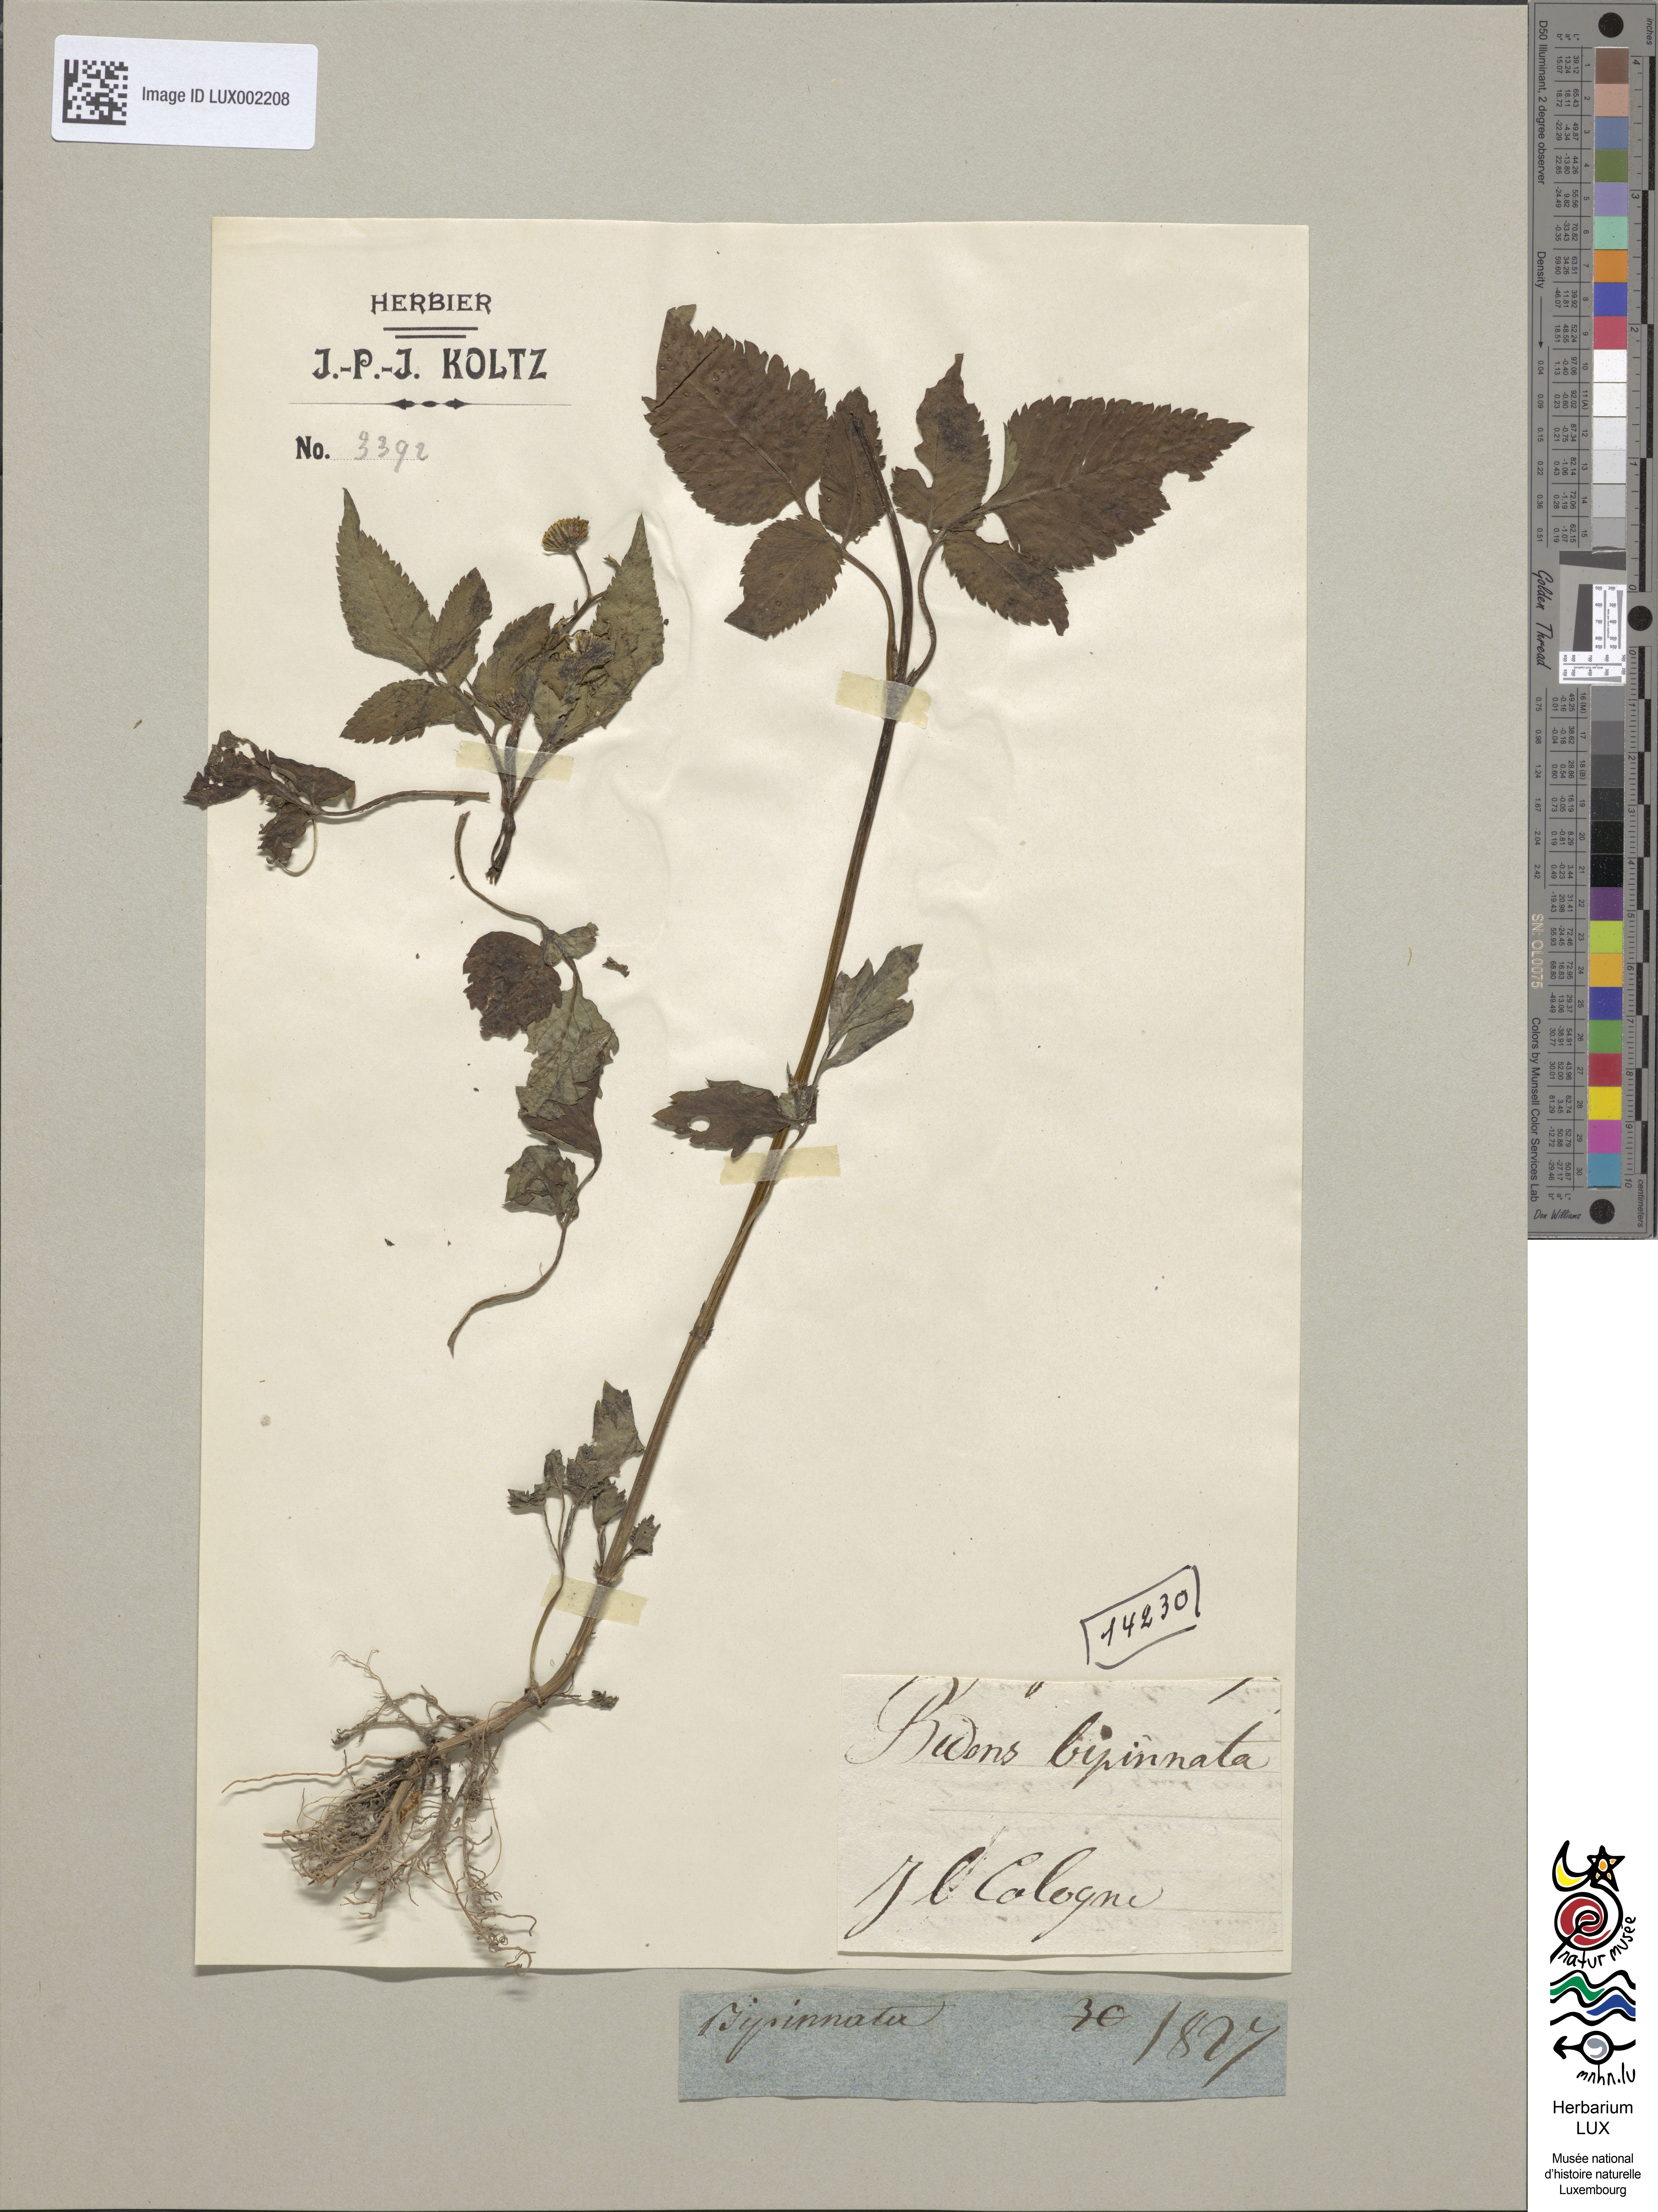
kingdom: Plantae
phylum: Tracheophyta
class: Magnoliopsida
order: Asterales
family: Asteraceae
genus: Bidens
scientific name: Bidens bipinnata
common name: Spanish-needles
